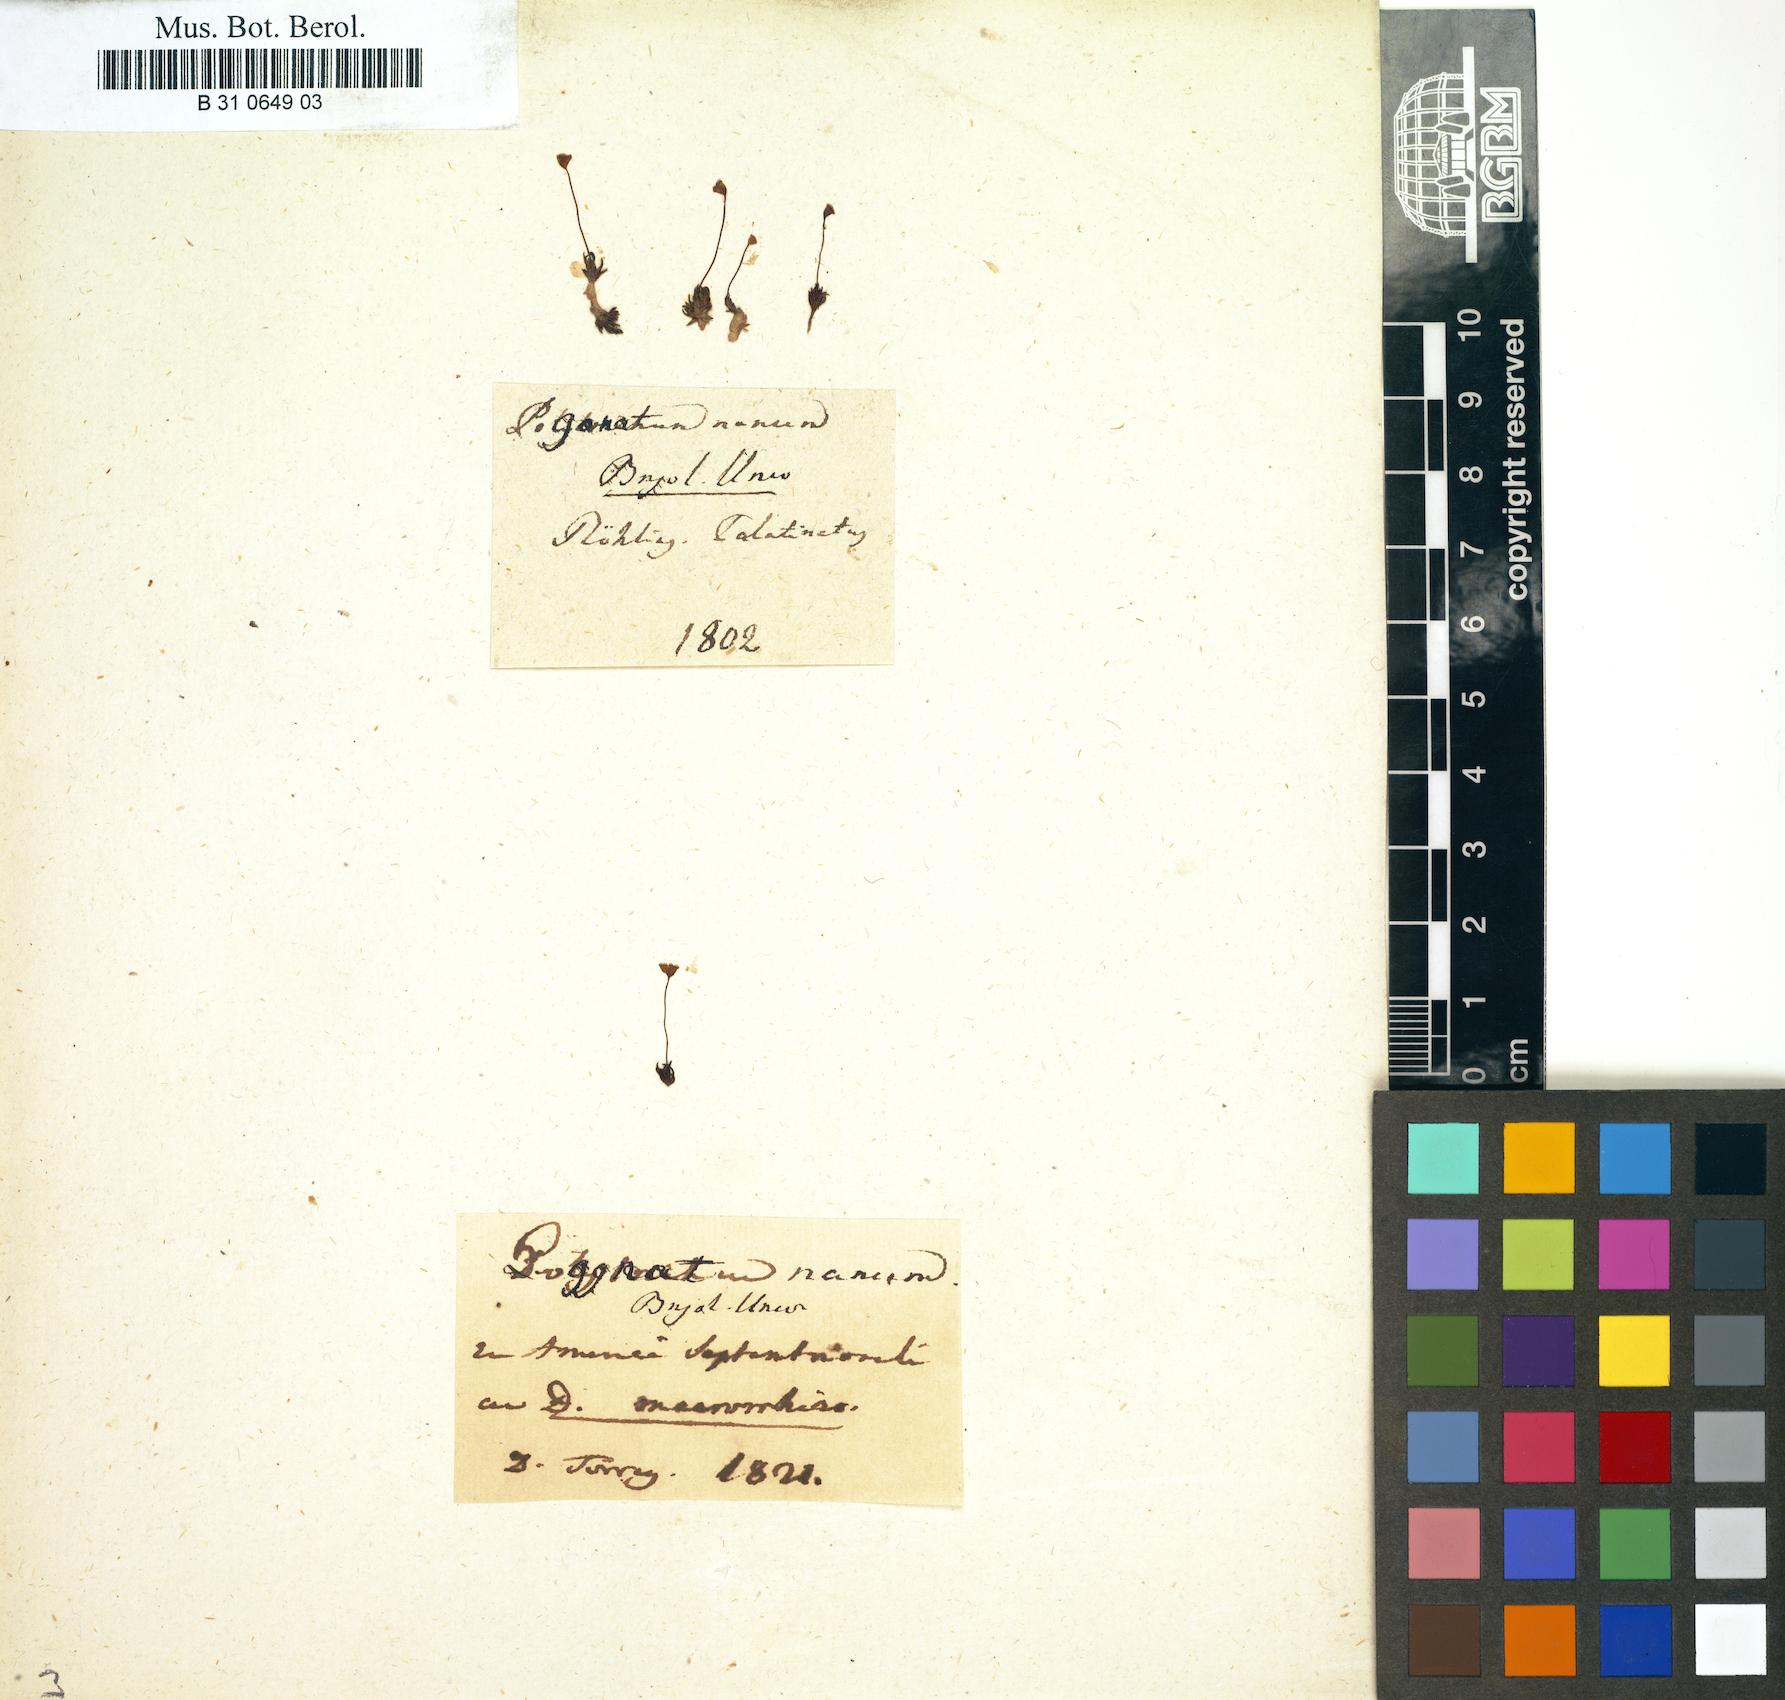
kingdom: Plantae
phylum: Bryophyta
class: Polytrichopsida
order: Polytrichales
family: Polytrichaceae
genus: Pogonatum
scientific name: Pogonatum minus
